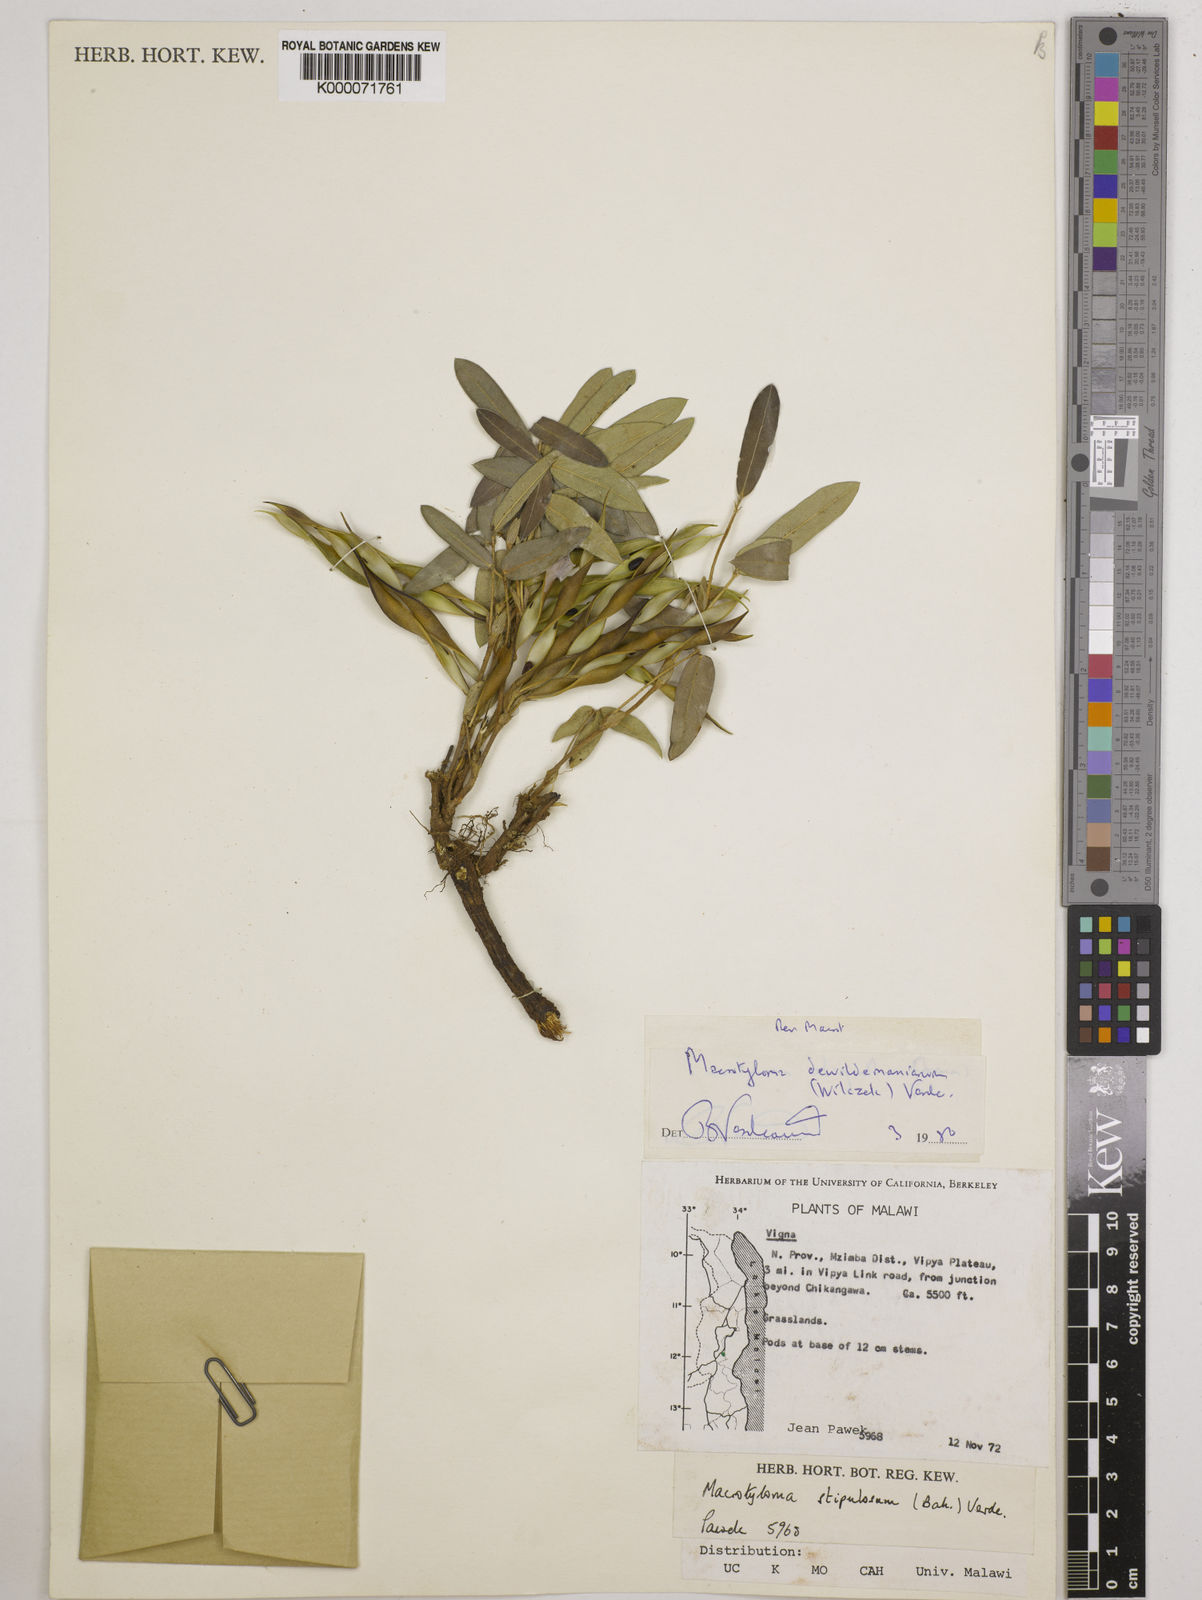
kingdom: Plantae
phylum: Tracheophyta
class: Magnoliopsida
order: Fabales
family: Fabaceae
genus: Macrotyloma
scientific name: Macrotyloma dewildemanianum
